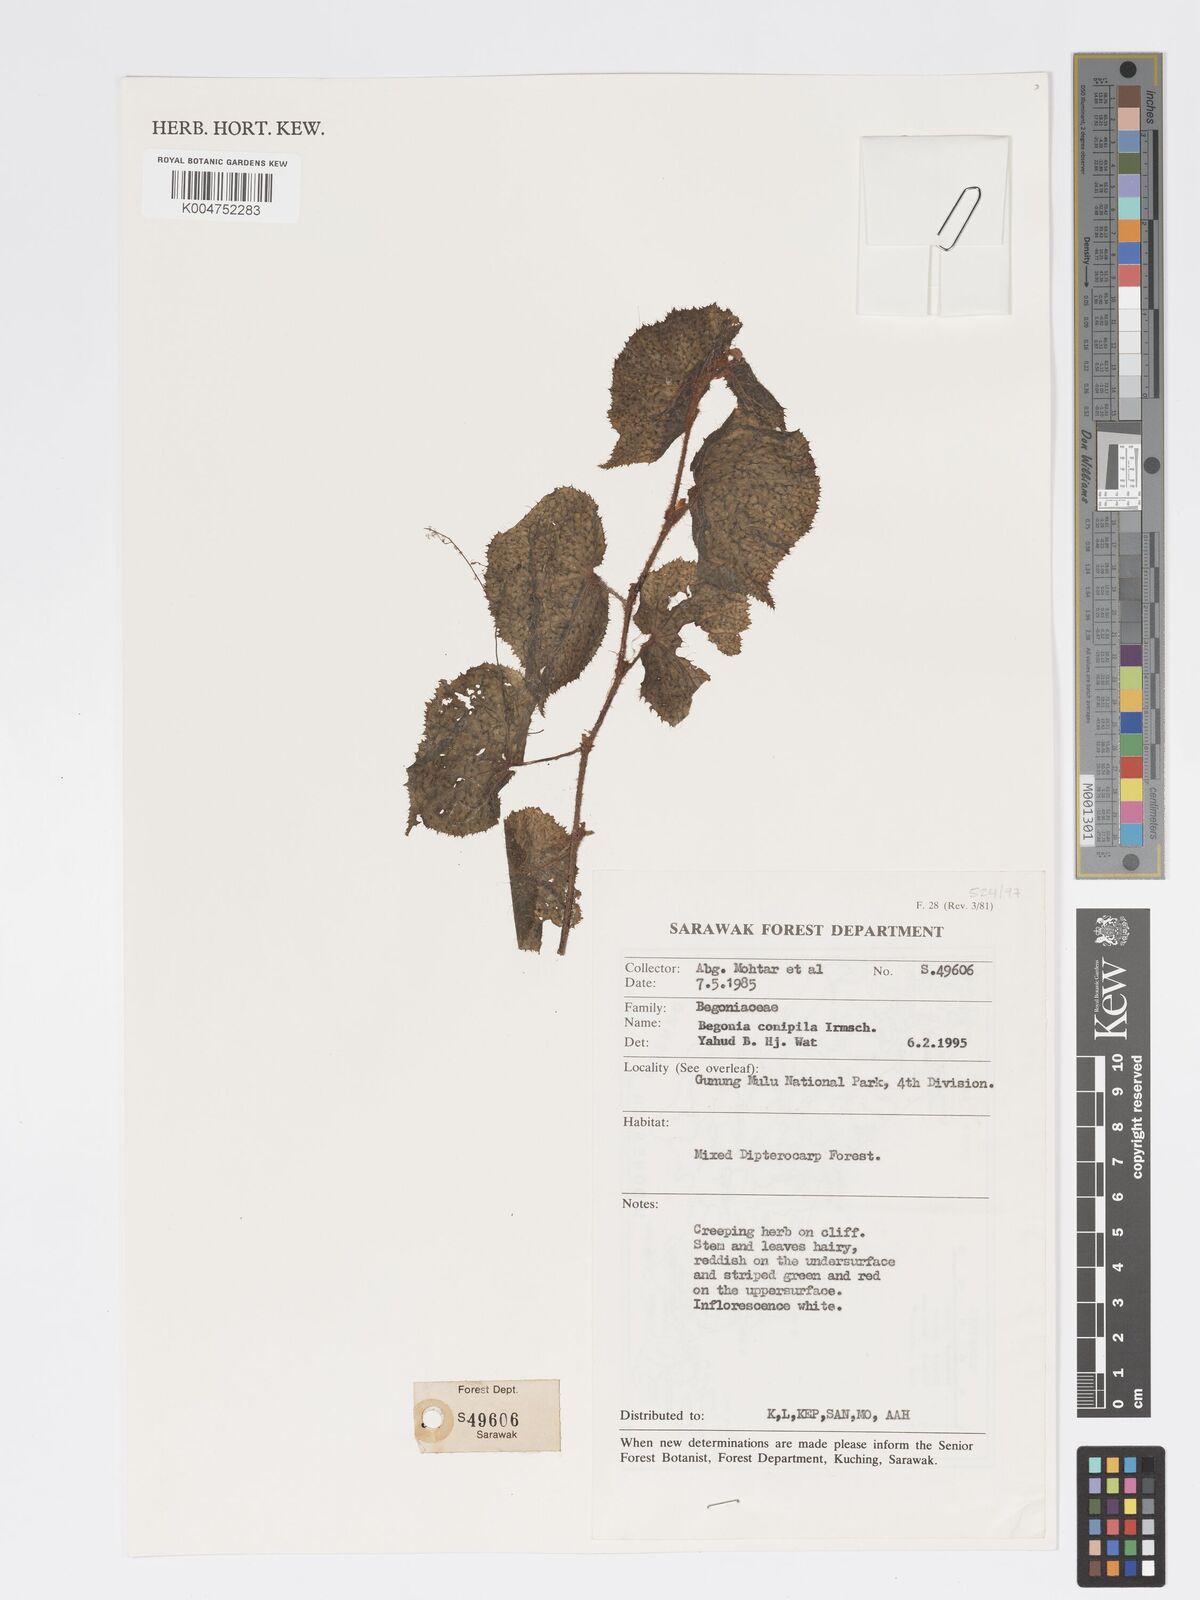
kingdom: Plantae
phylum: Tracheophyta
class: Magnoliopsida
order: Cucurbitales
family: Begoniaceae
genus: Begonia
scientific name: Begonia conipila
